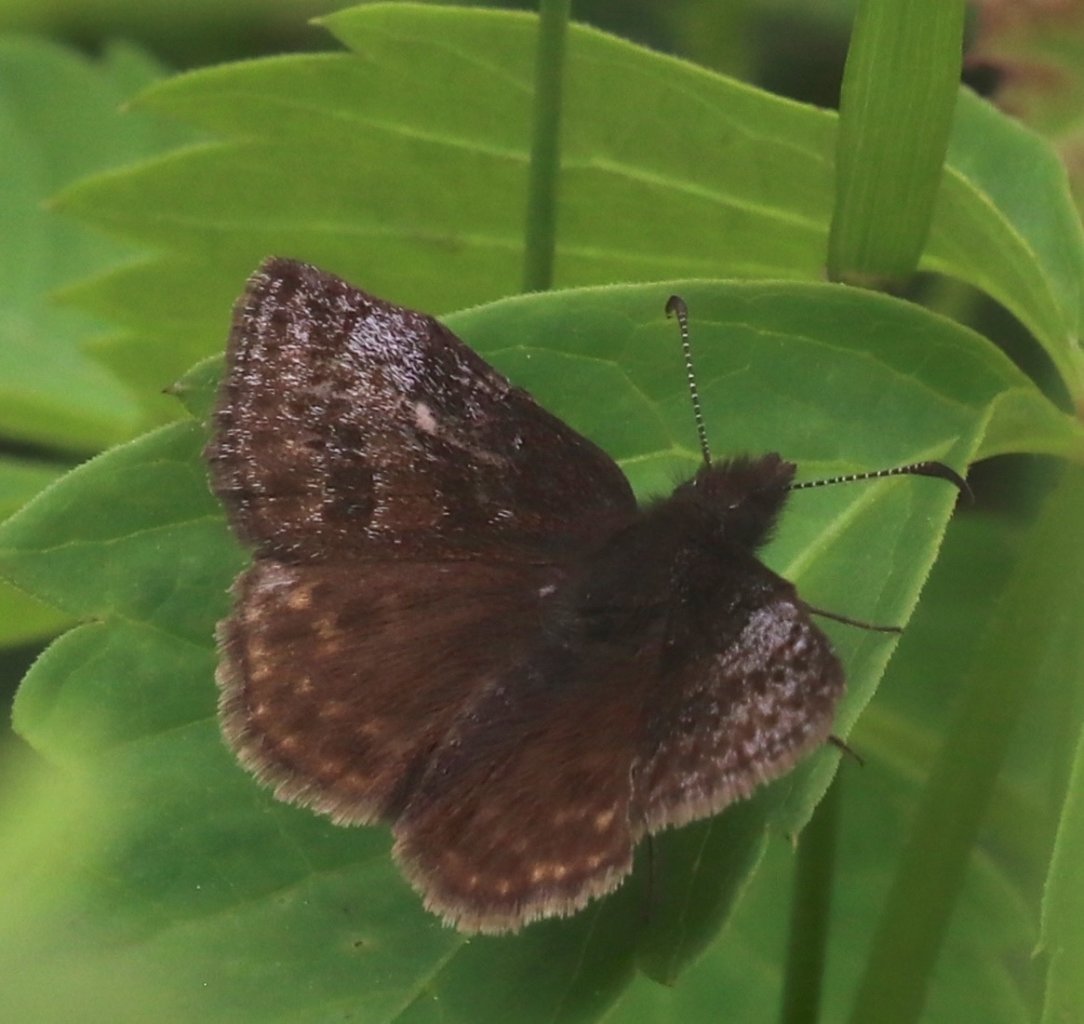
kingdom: Animalia
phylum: Arthropoda
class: Insecta
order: Lepidoptera
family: Hesperiidae
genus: Erynnis
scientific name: Erynnis icelus
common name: Dreamy Duskywing
